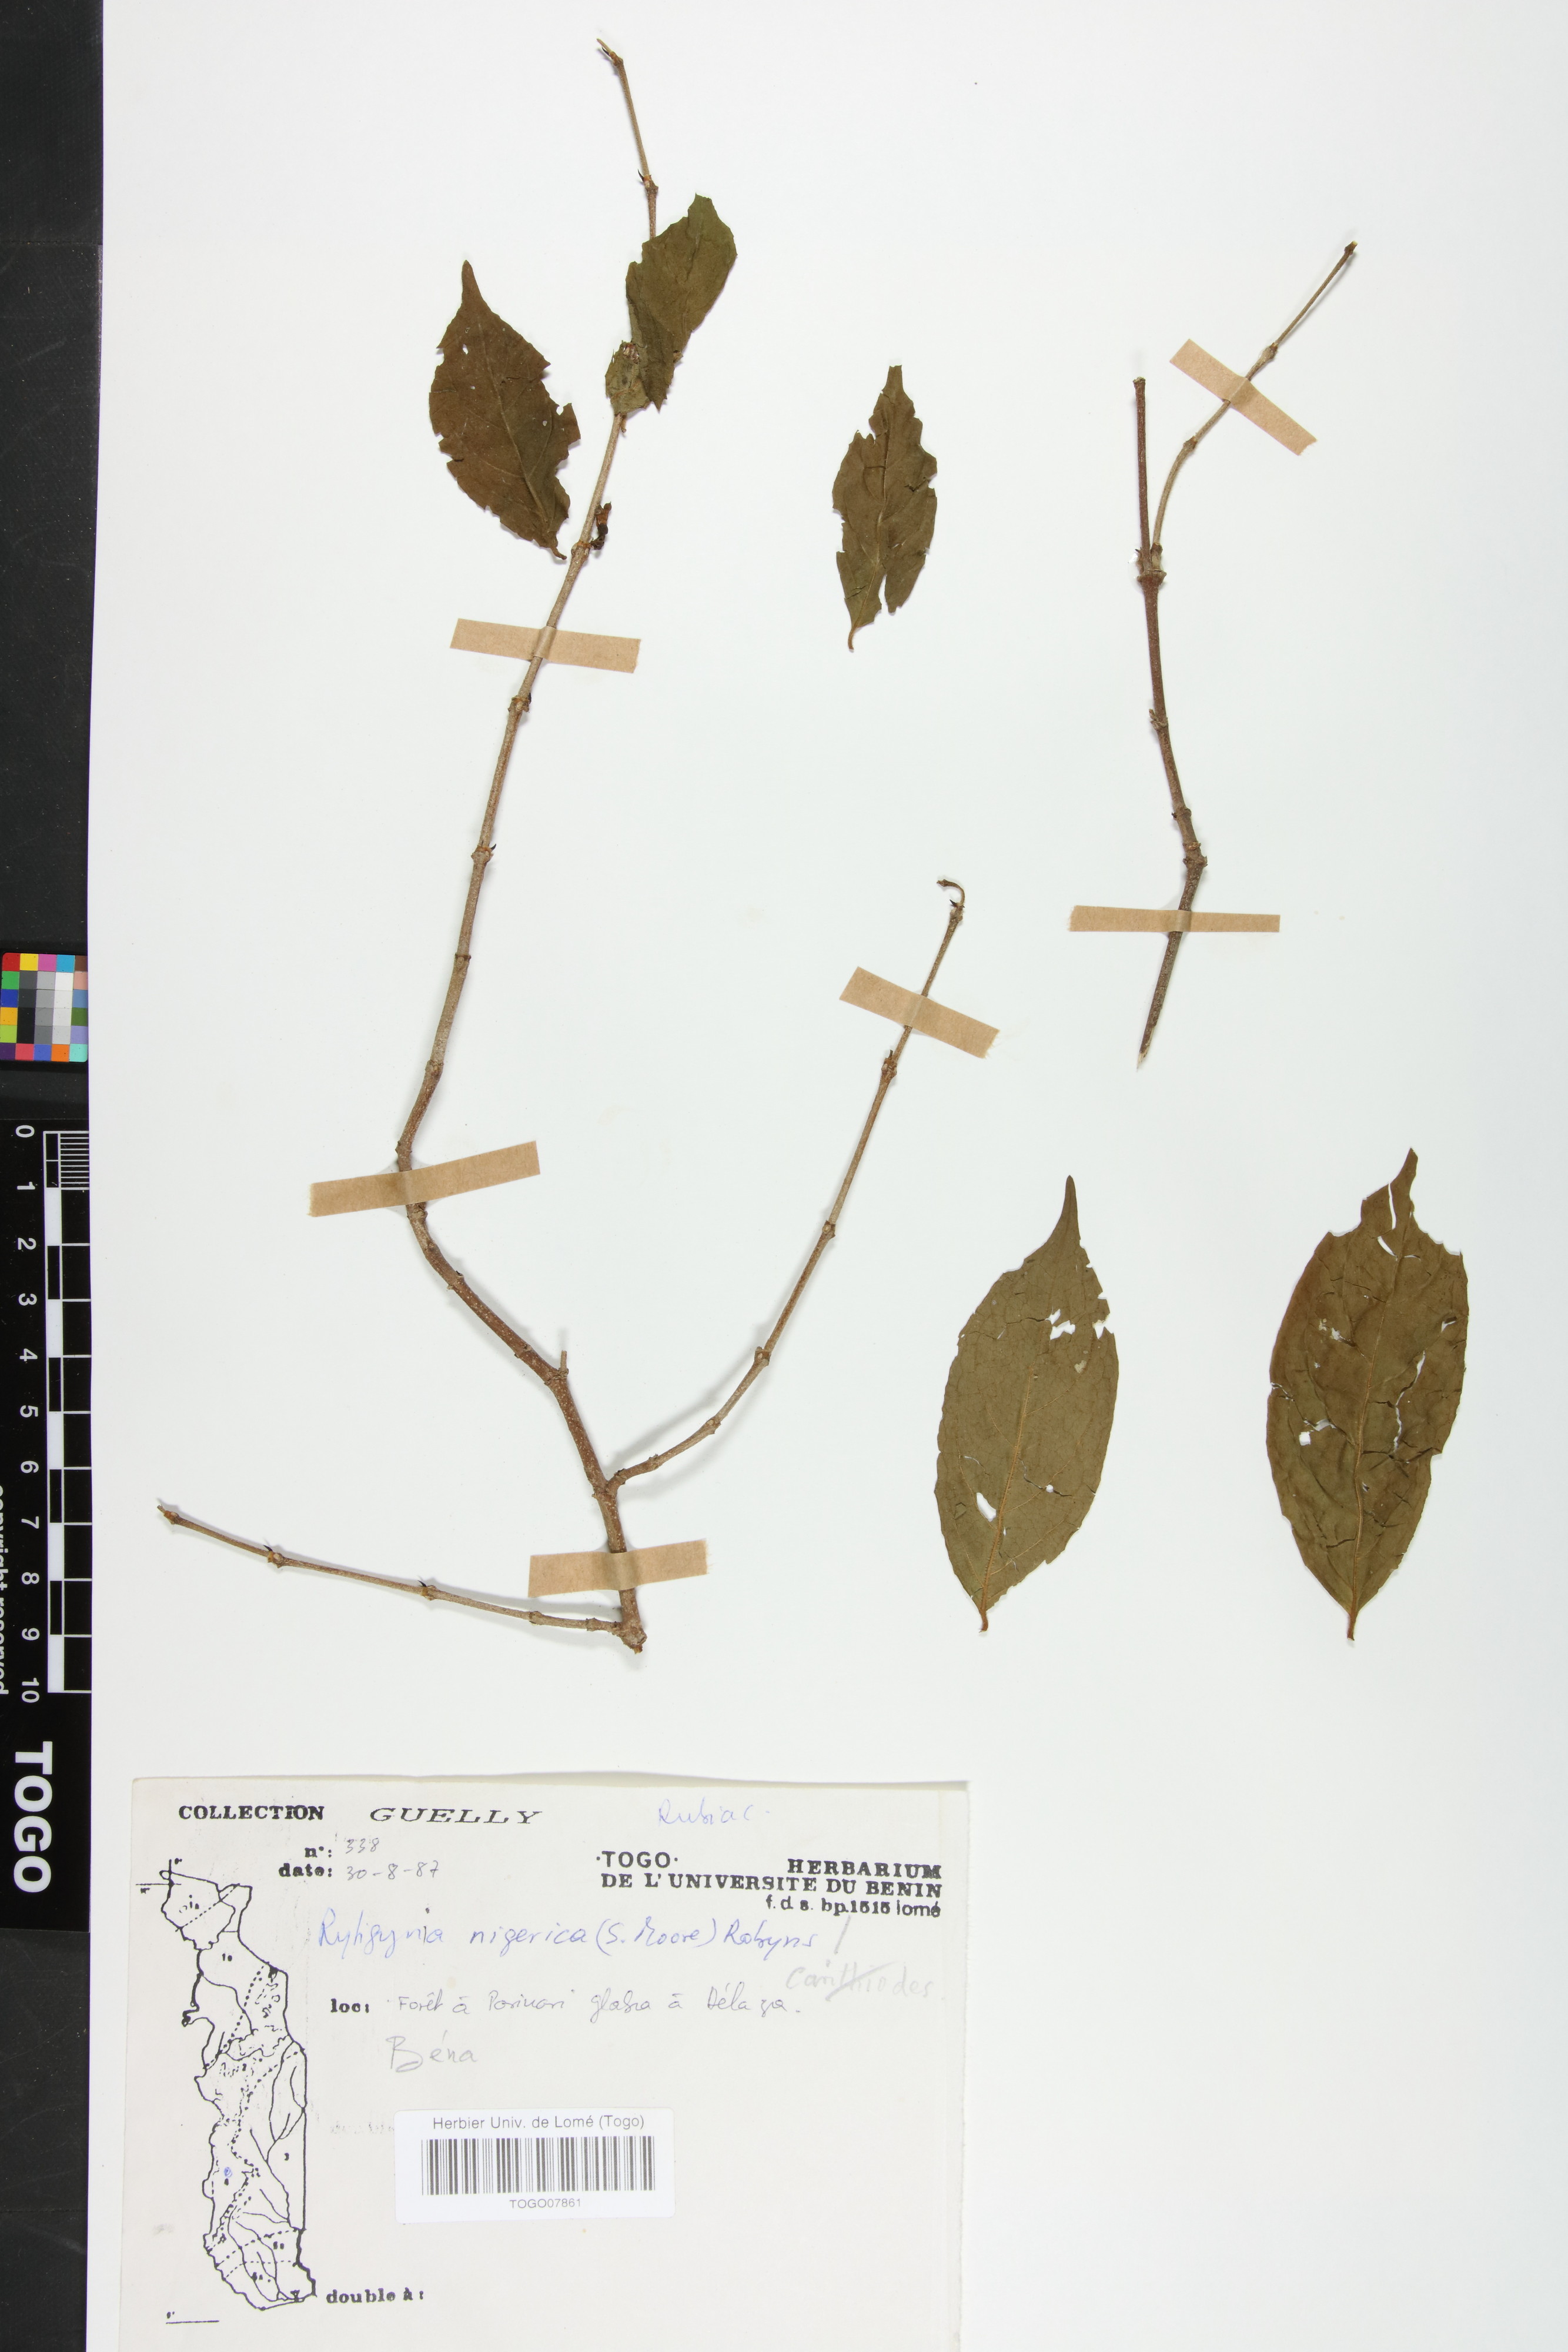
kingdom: Plantae
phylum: Tracheophyta
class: Magnoliopsida
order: Gentianales
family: Rubiaceae
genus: Rytigynia
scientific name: Rytigynia nigerica
